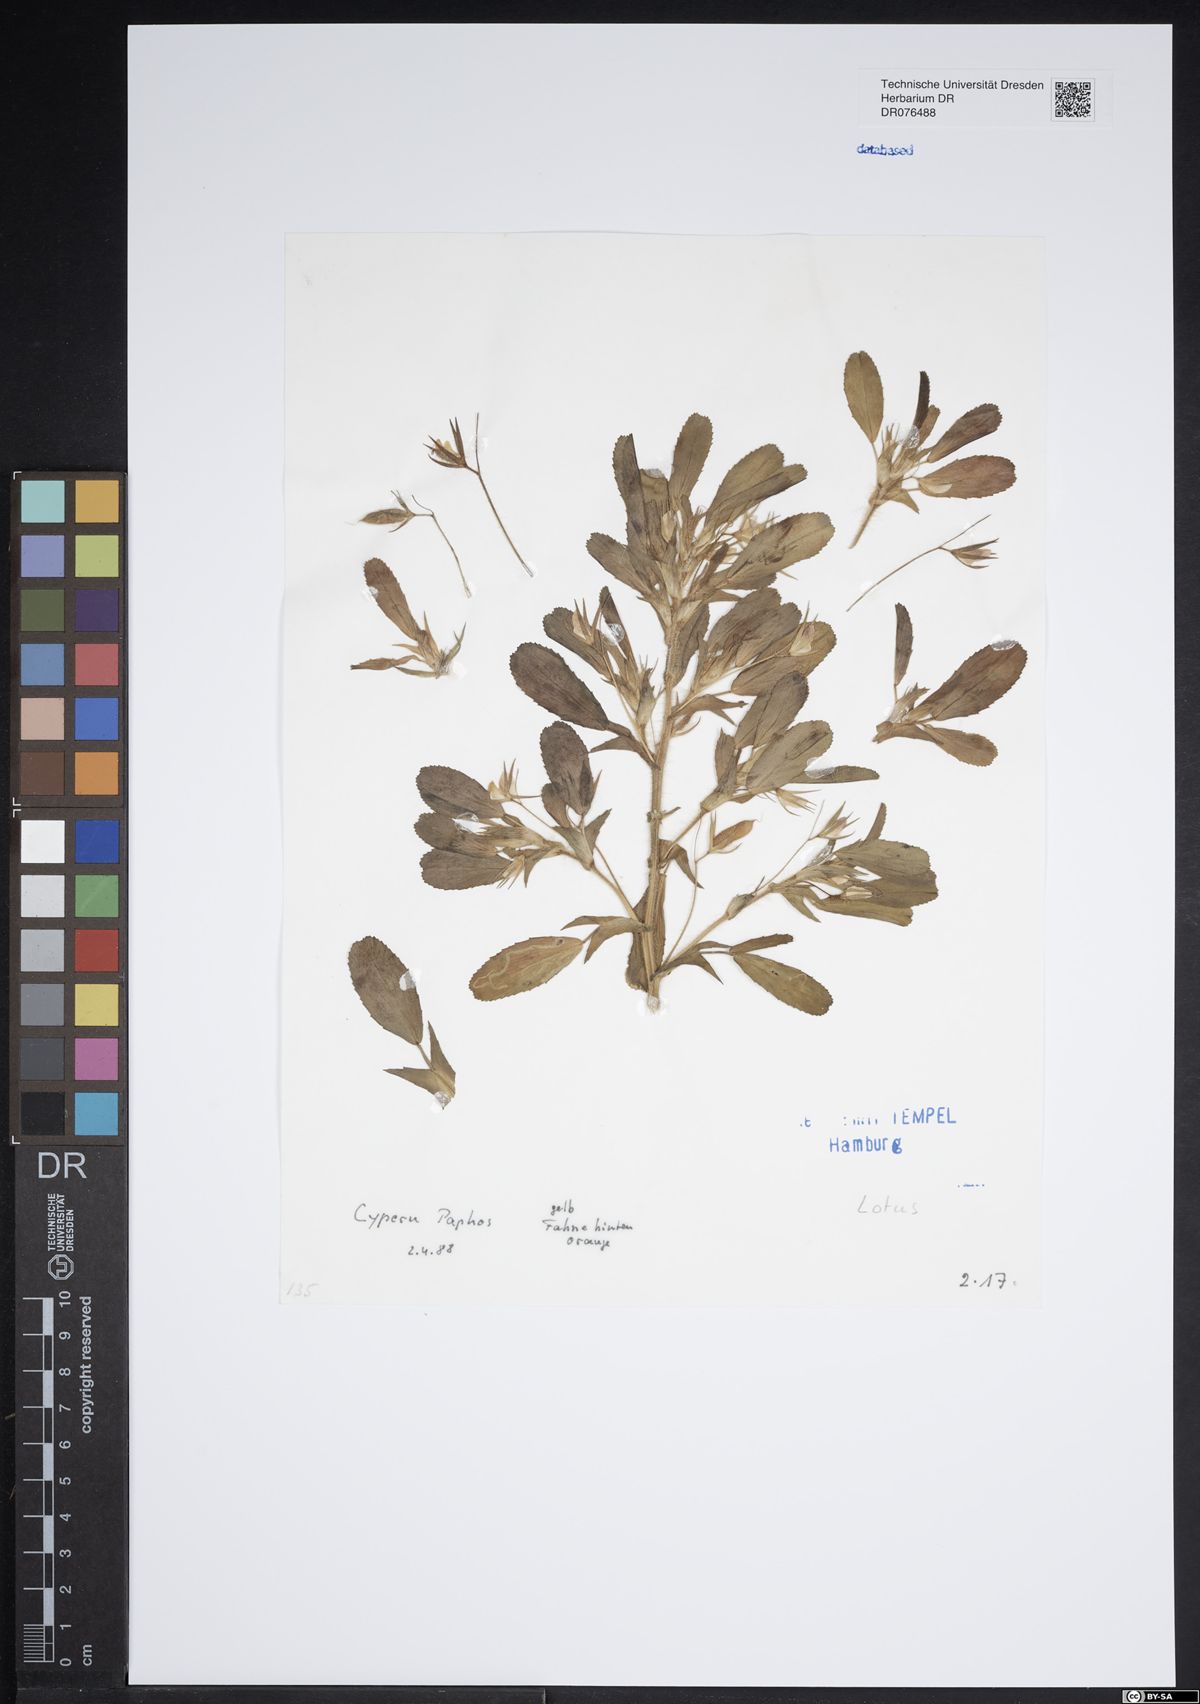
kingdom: Plantae
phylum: Tracheophyta
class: Magnoliopsida
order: Fabales
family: Fabaceae
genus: Lotus
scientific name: Lotus
